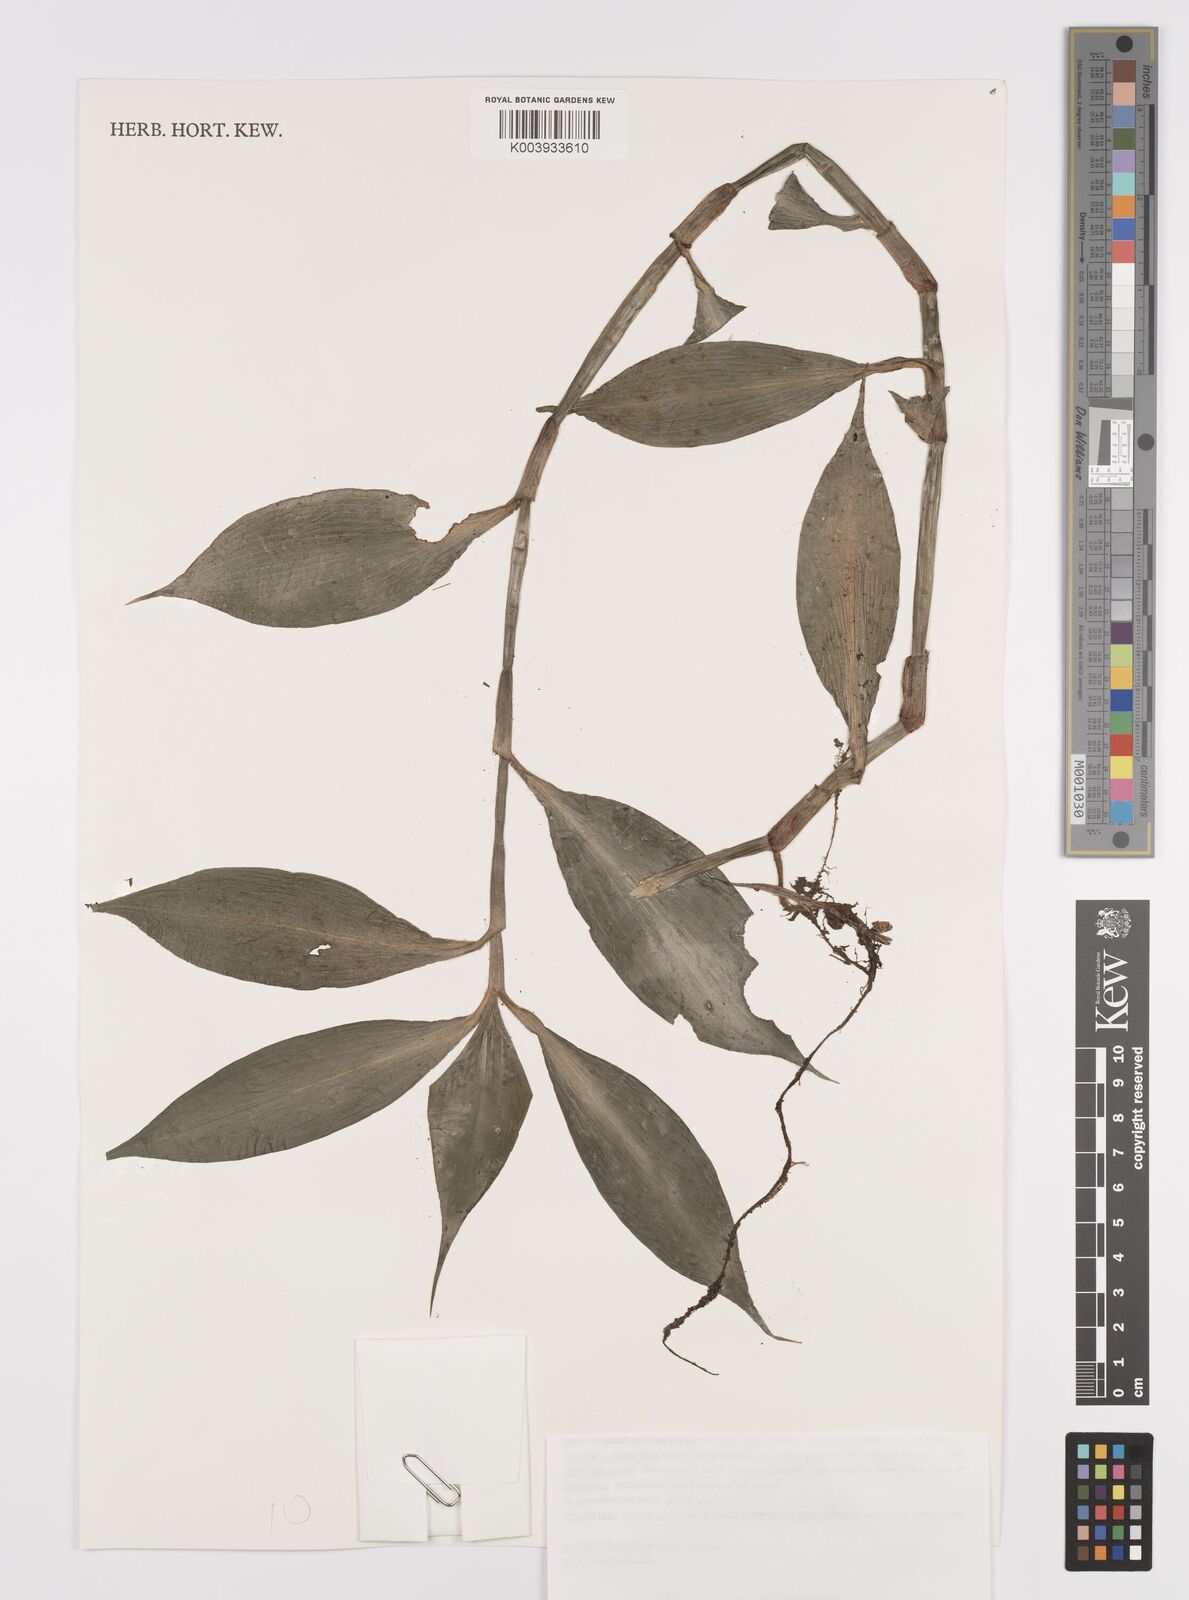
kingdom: Plantae
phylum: Tracheophyta
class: Liliopsida
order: Commelinales
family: Commelinaceae
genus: Coleotrype
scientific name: Coleotrype laurentii
